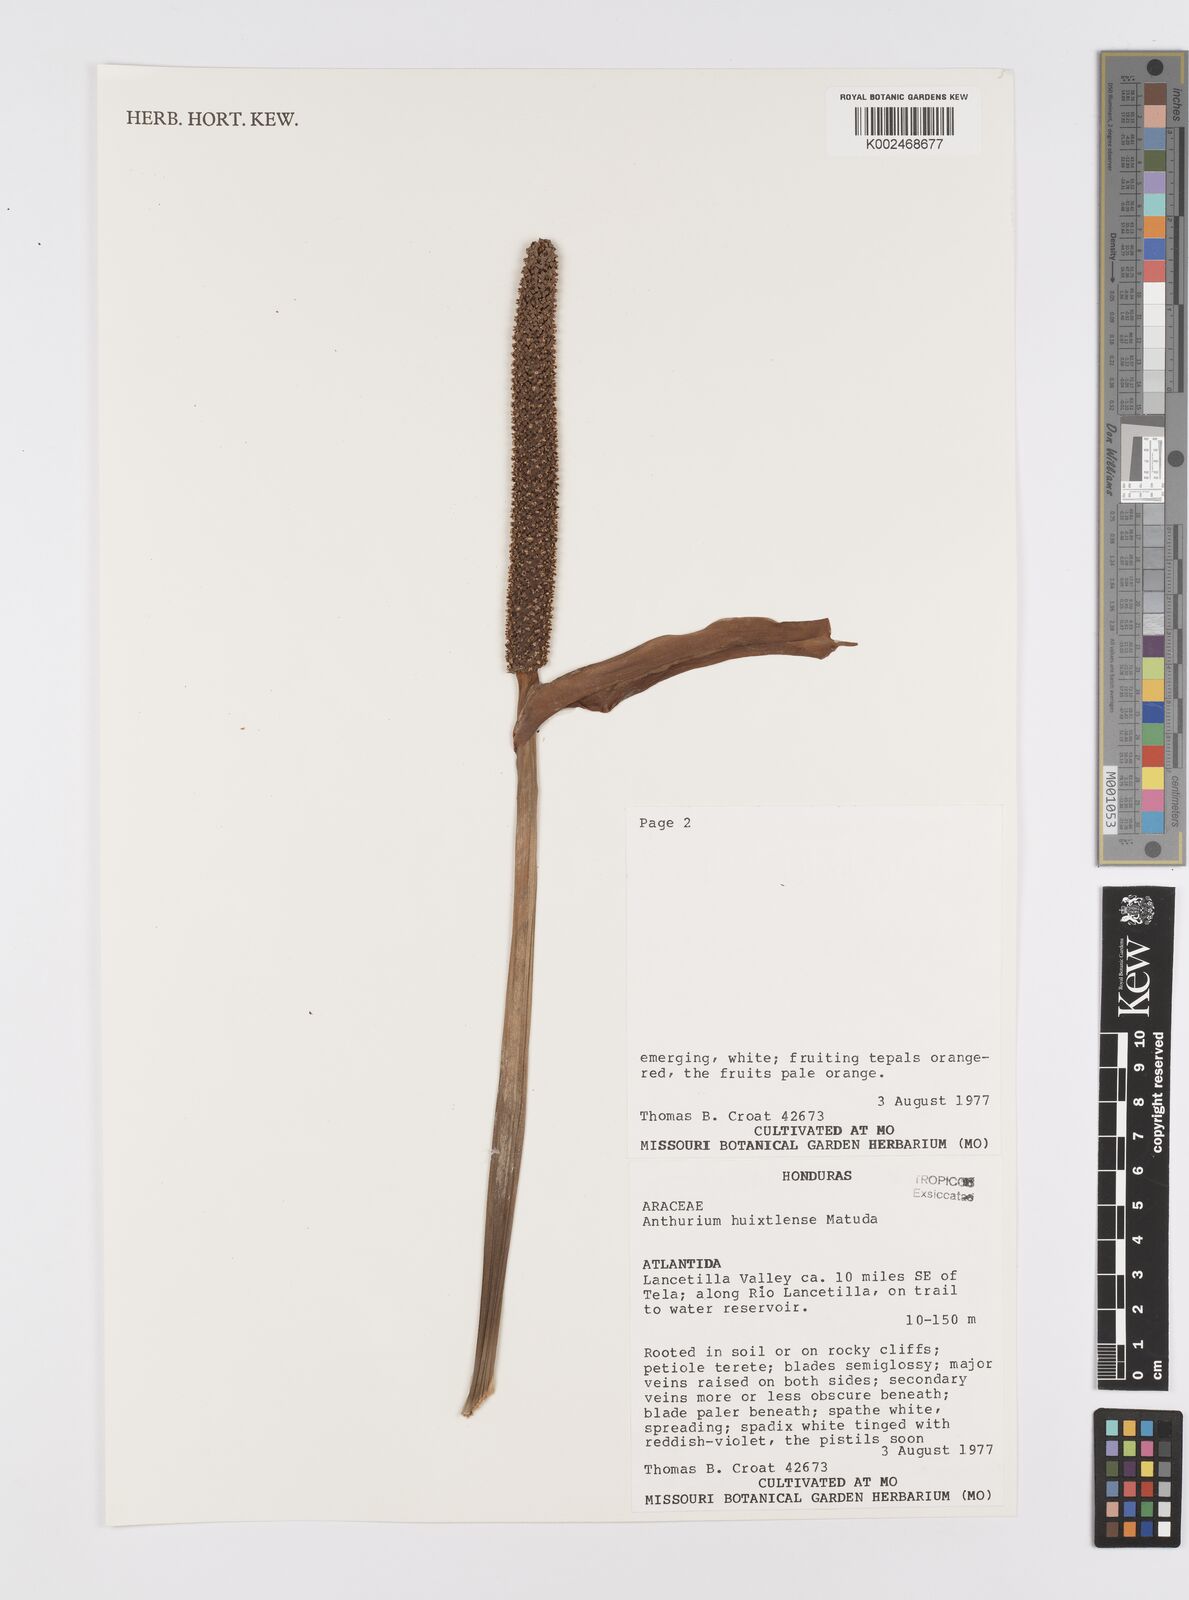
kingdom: Plantae
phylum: Tracheophyta
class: Liliopsida
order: Alismatales
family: Araceae
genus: Anthurium
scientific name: Anthurium huixtlense
